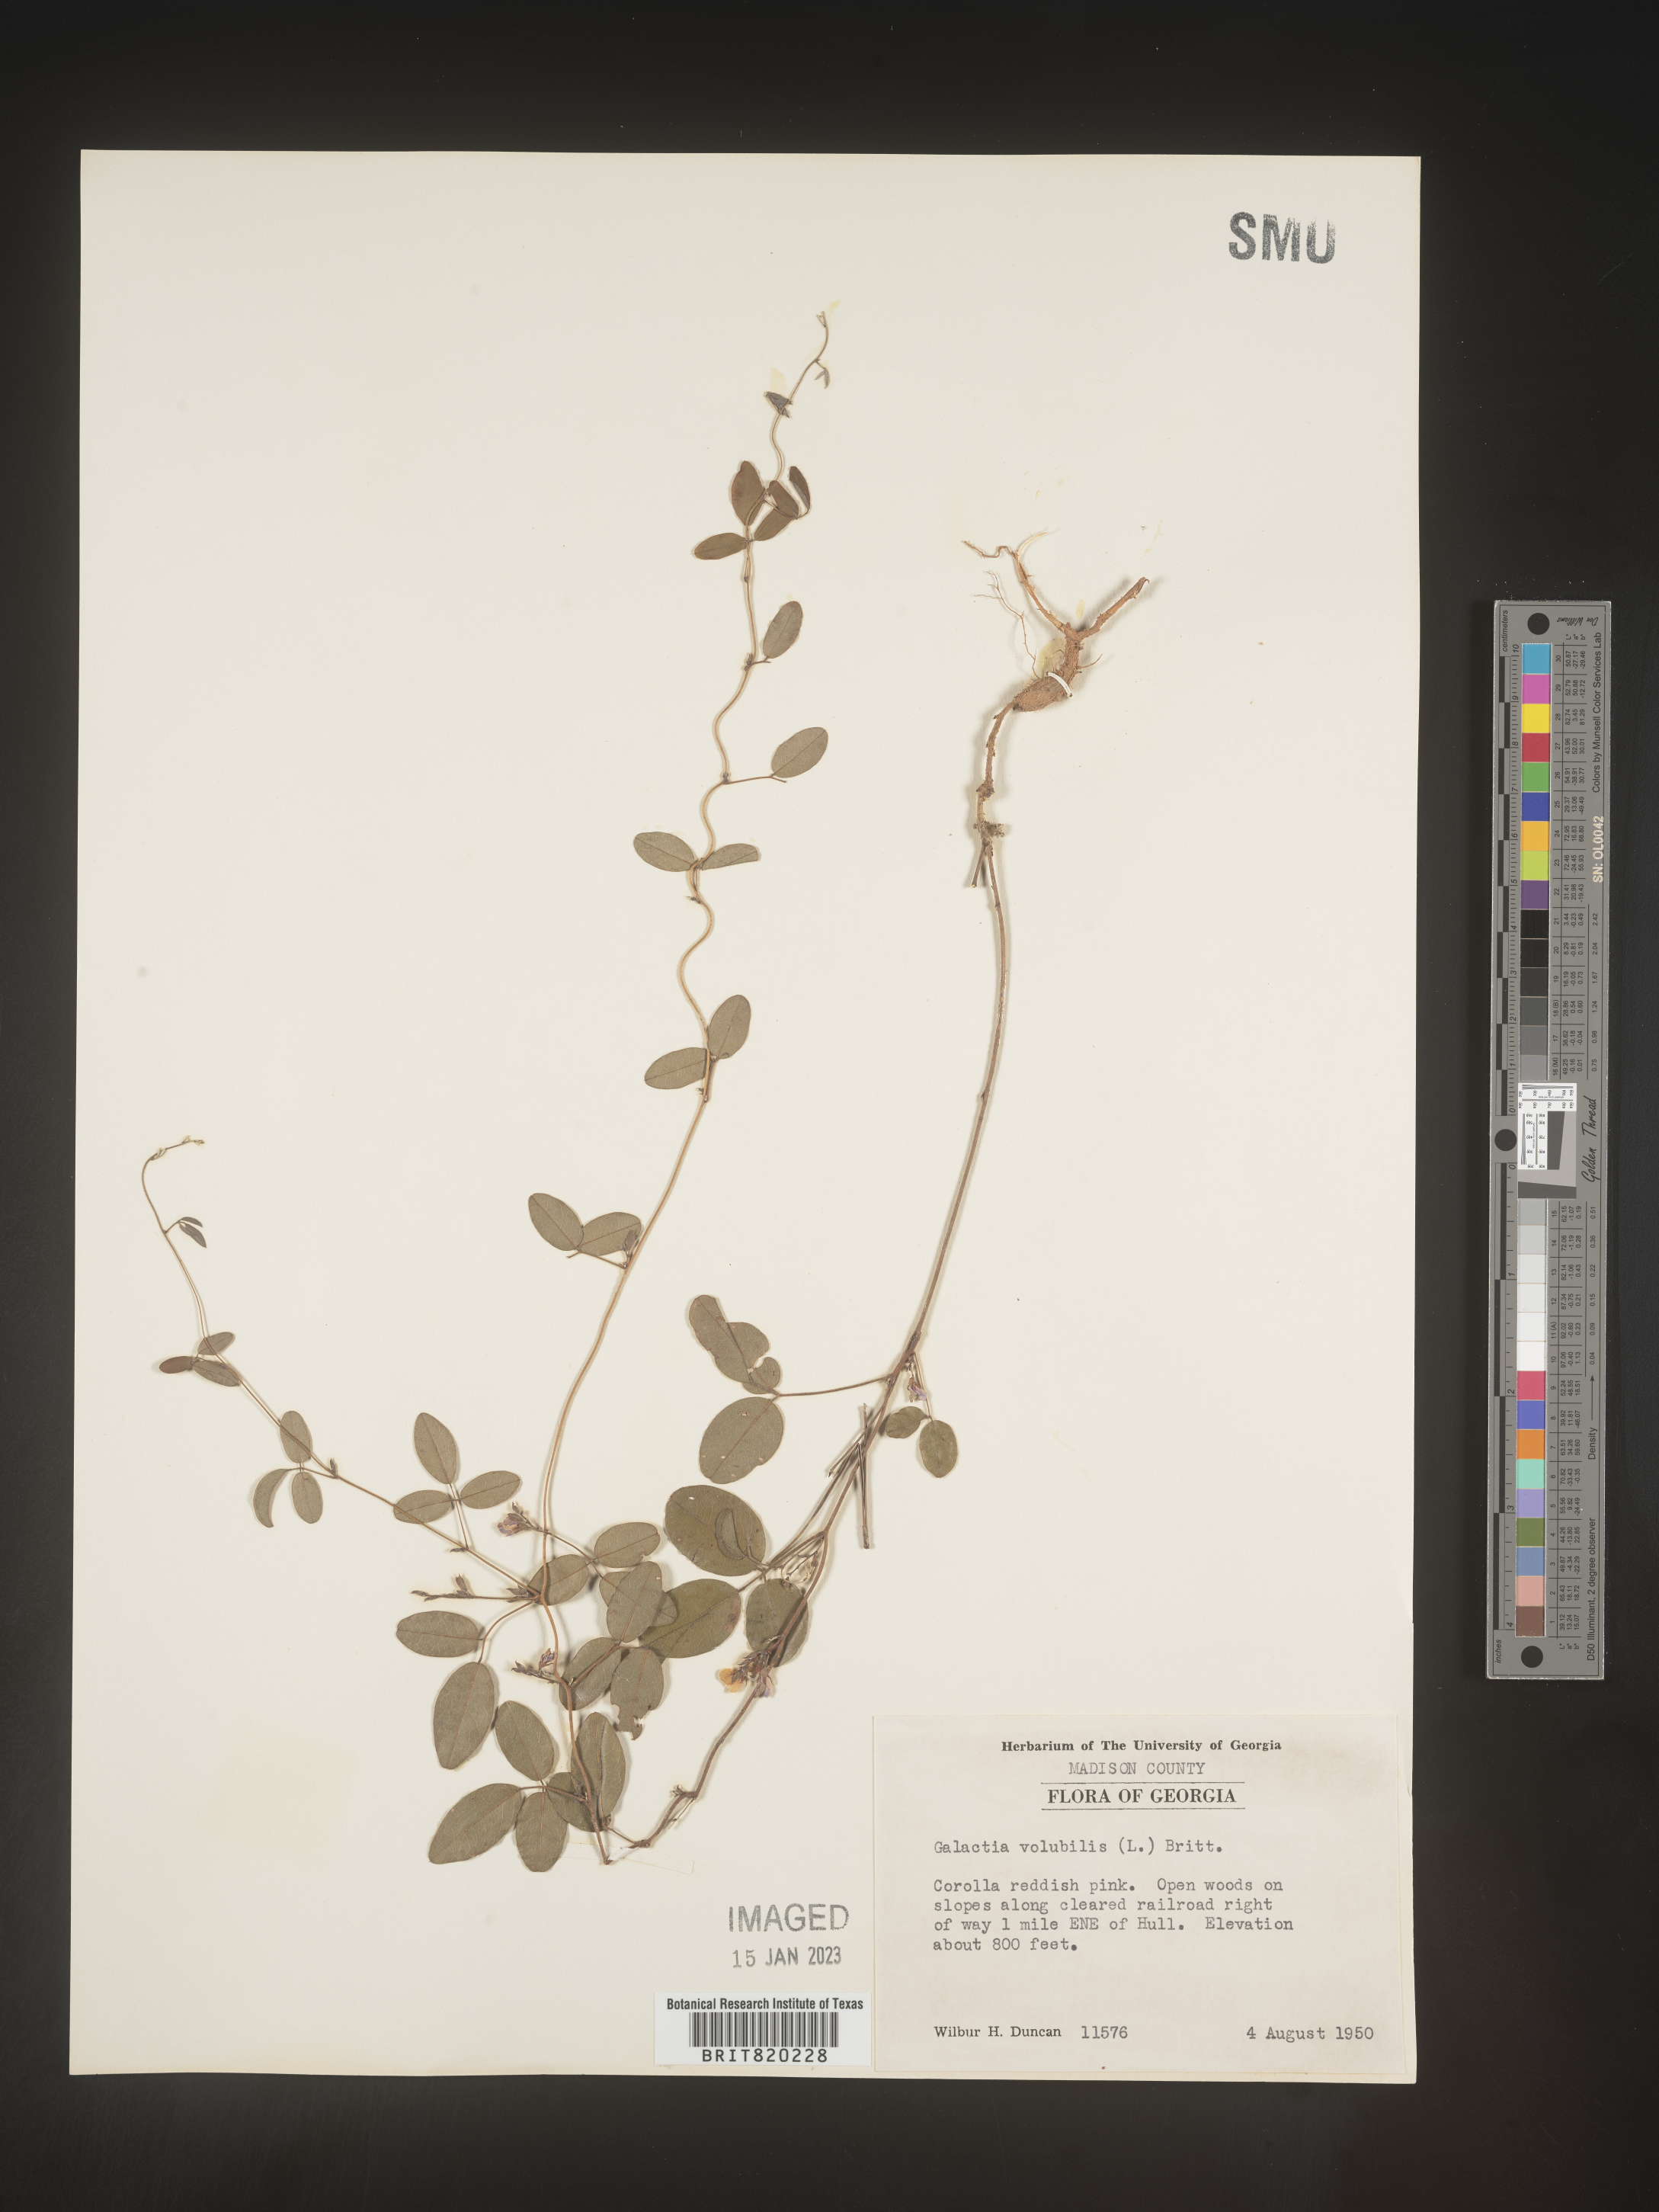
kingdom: Plantae
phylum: Tracheophyta
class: Magnoliopsida
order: Fabales
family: Fabaceae
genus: Galactia
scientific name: Galactia volubilis
